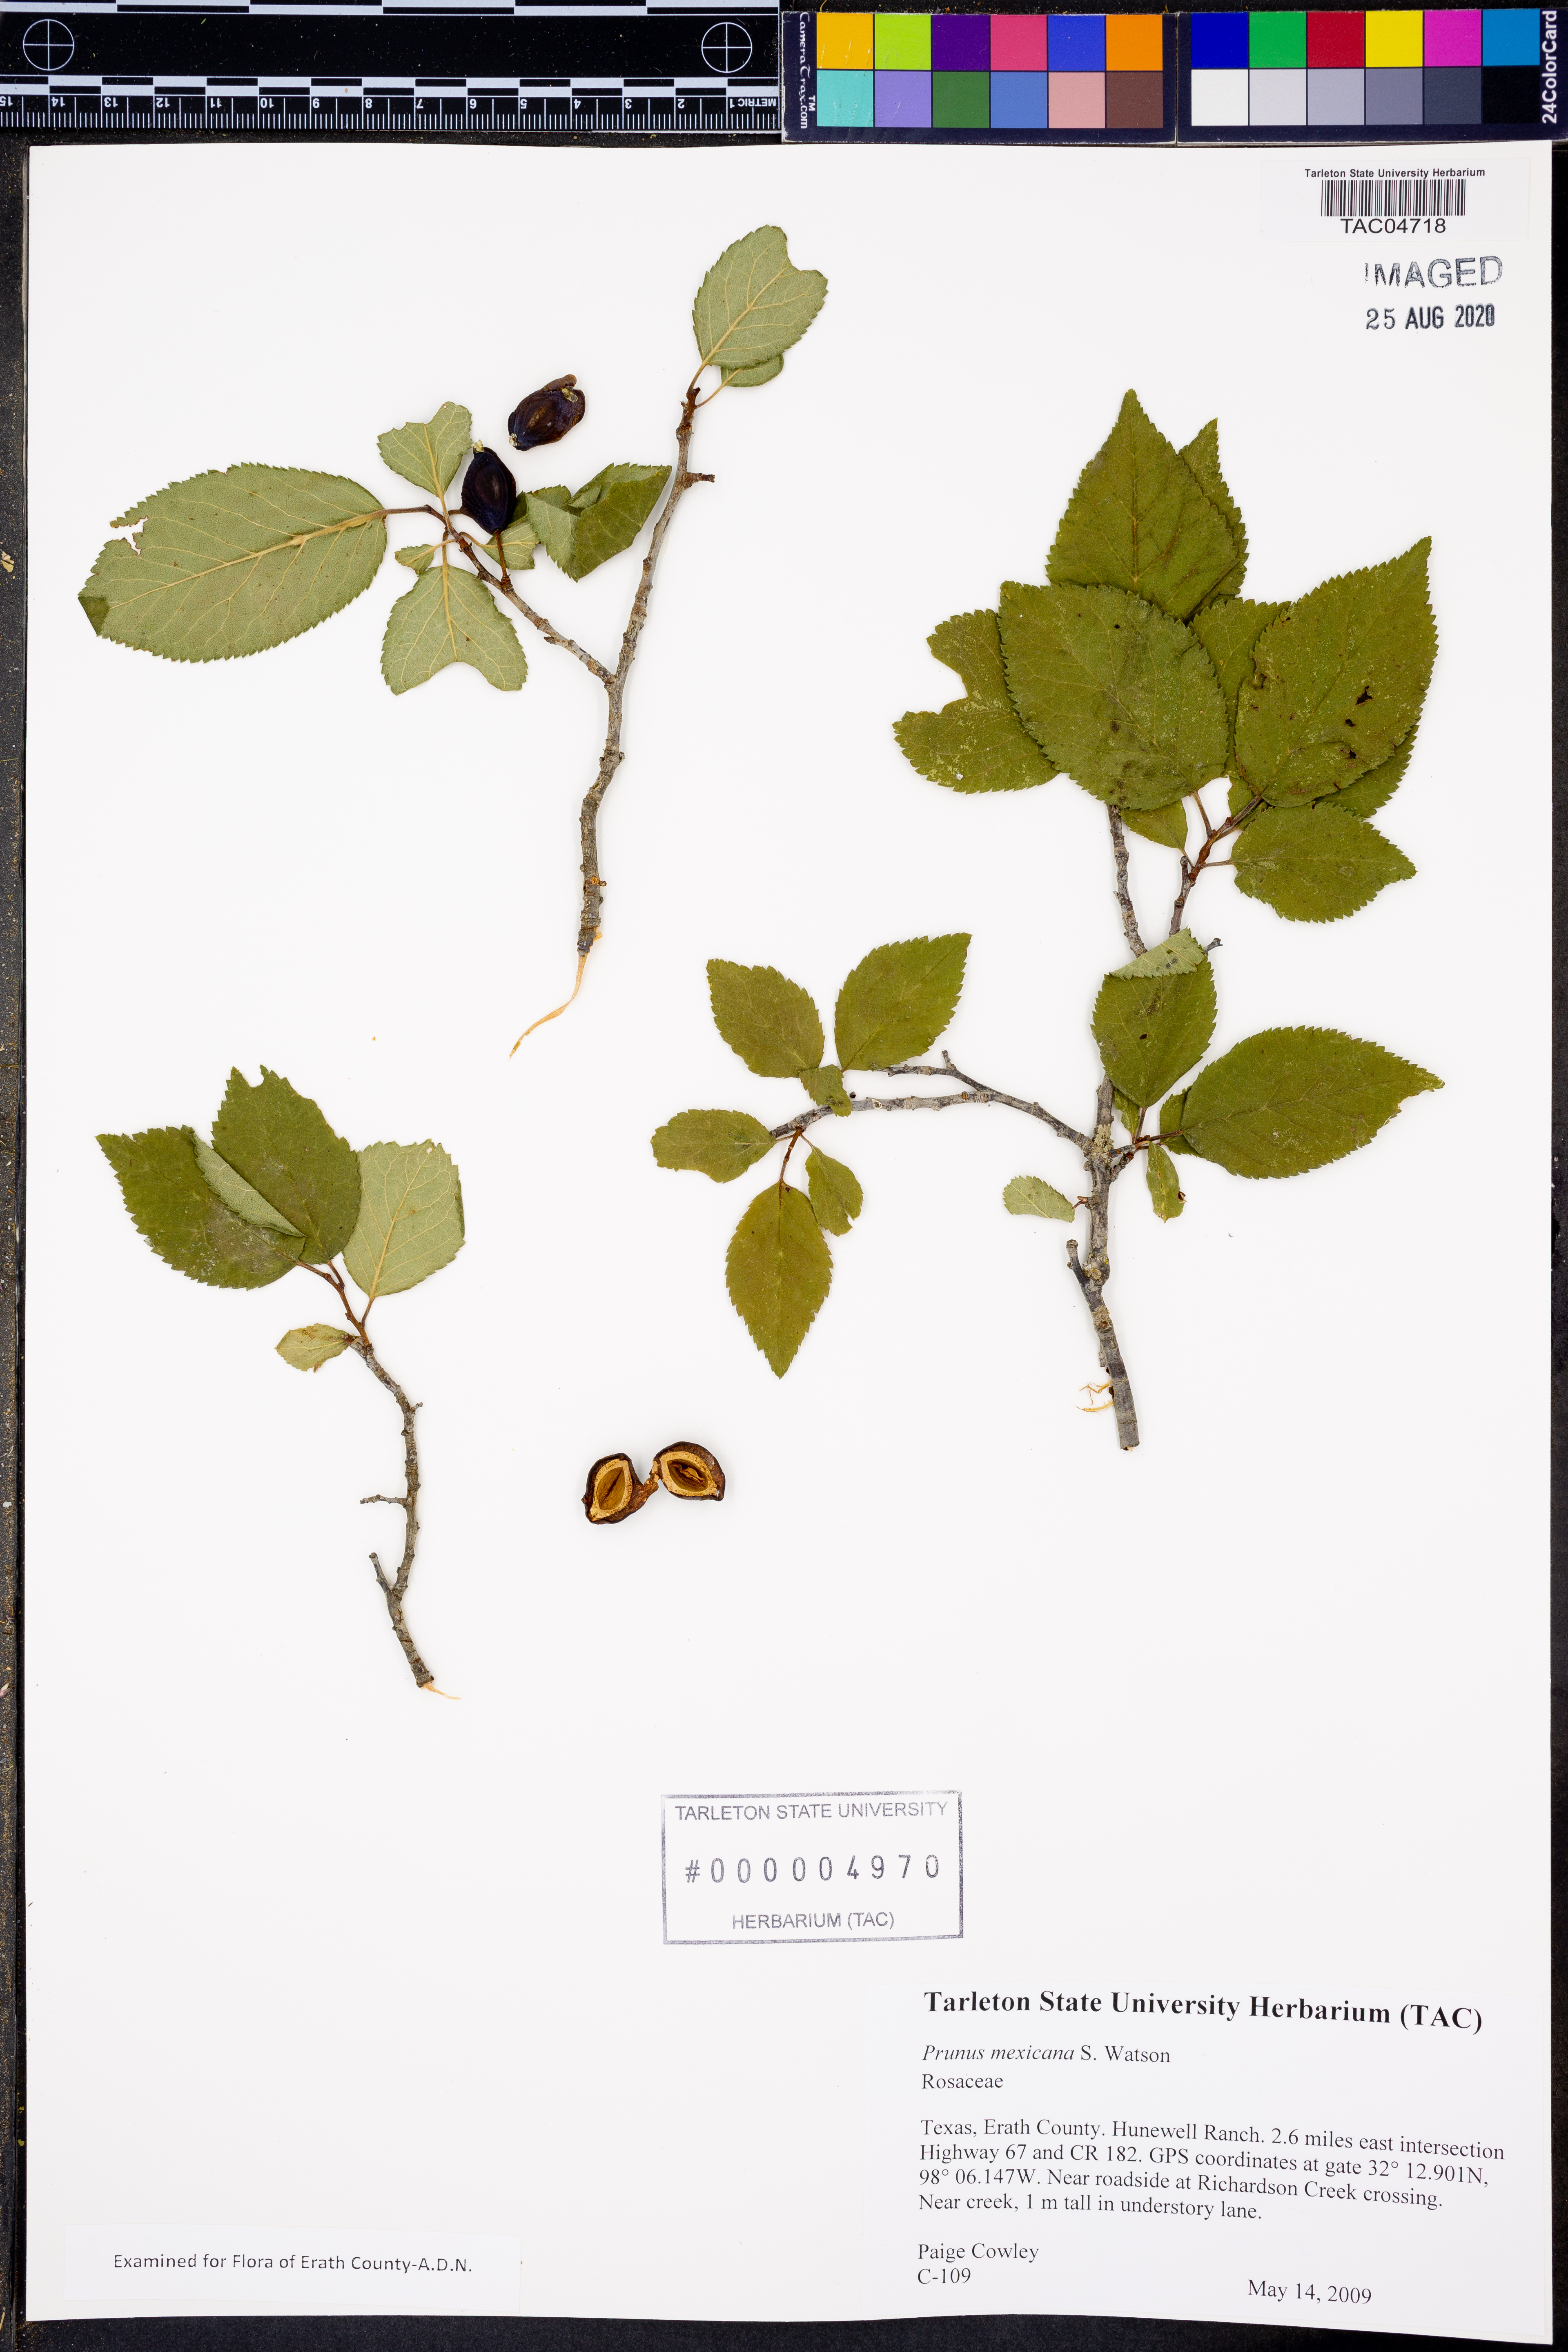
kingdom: Plantae
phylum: Tracheophyta
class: Magnoliopsida
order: Rosales
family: Rosaceae
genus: Prunus
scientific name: Prunus mexicana
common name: Mexican plum
